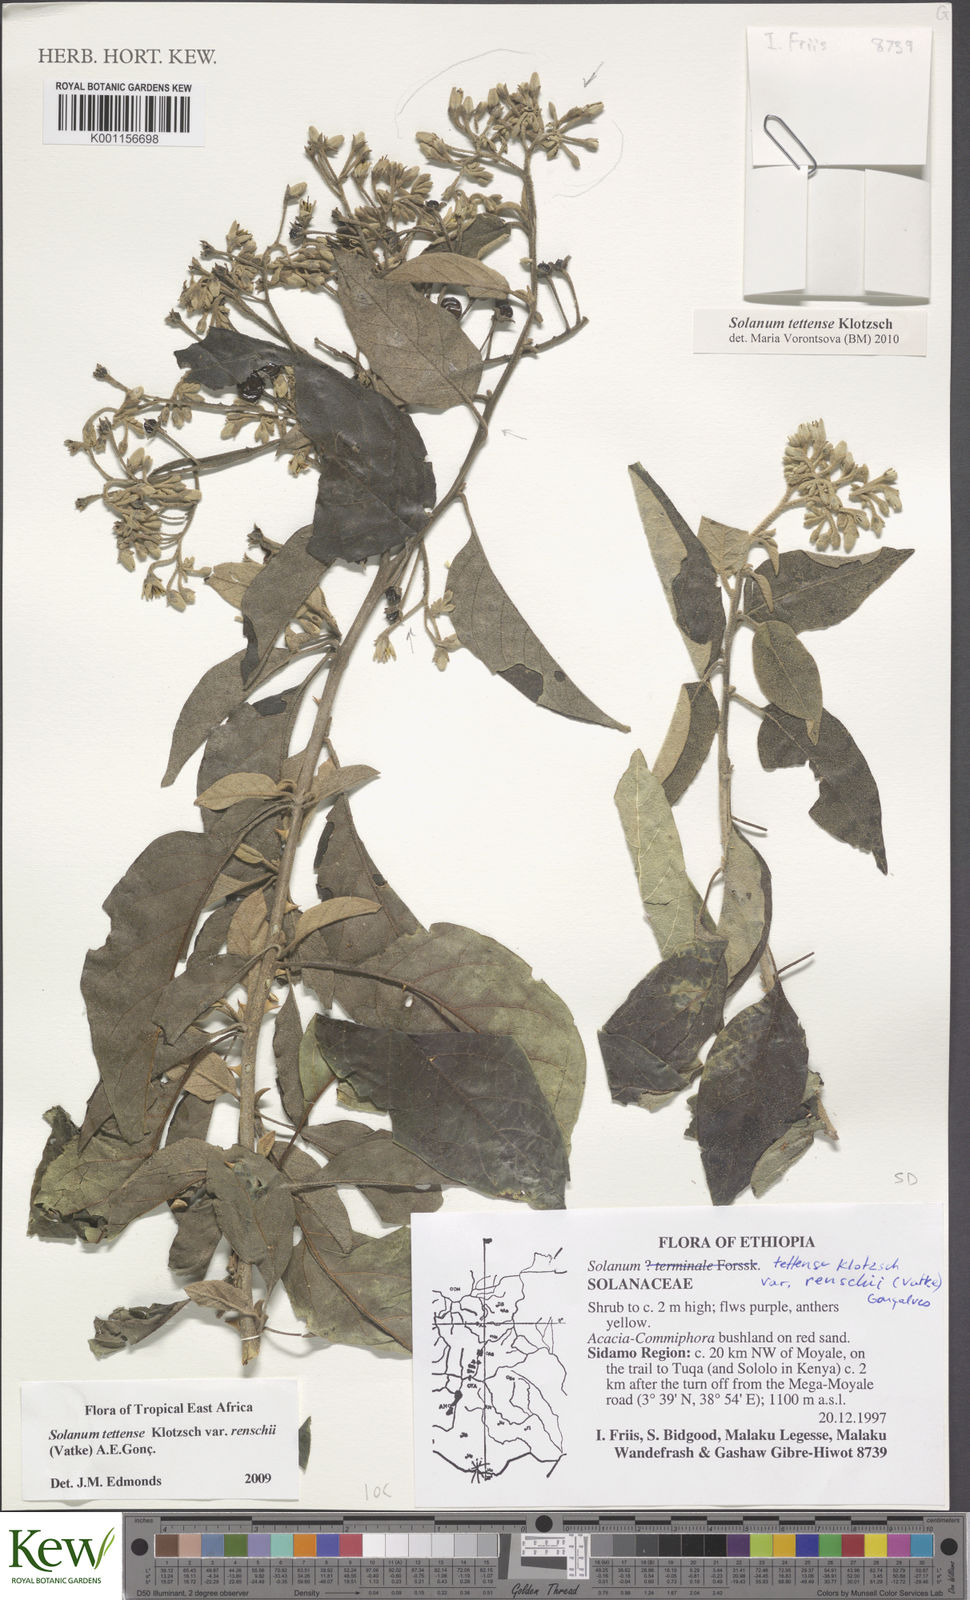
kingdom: Plantae
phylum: Tracheophyta
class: Magnoliopsida
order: Solanales
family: Solanaceae
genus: Solanum
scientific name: Solanum tettense
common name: Mozambique bitter apple
